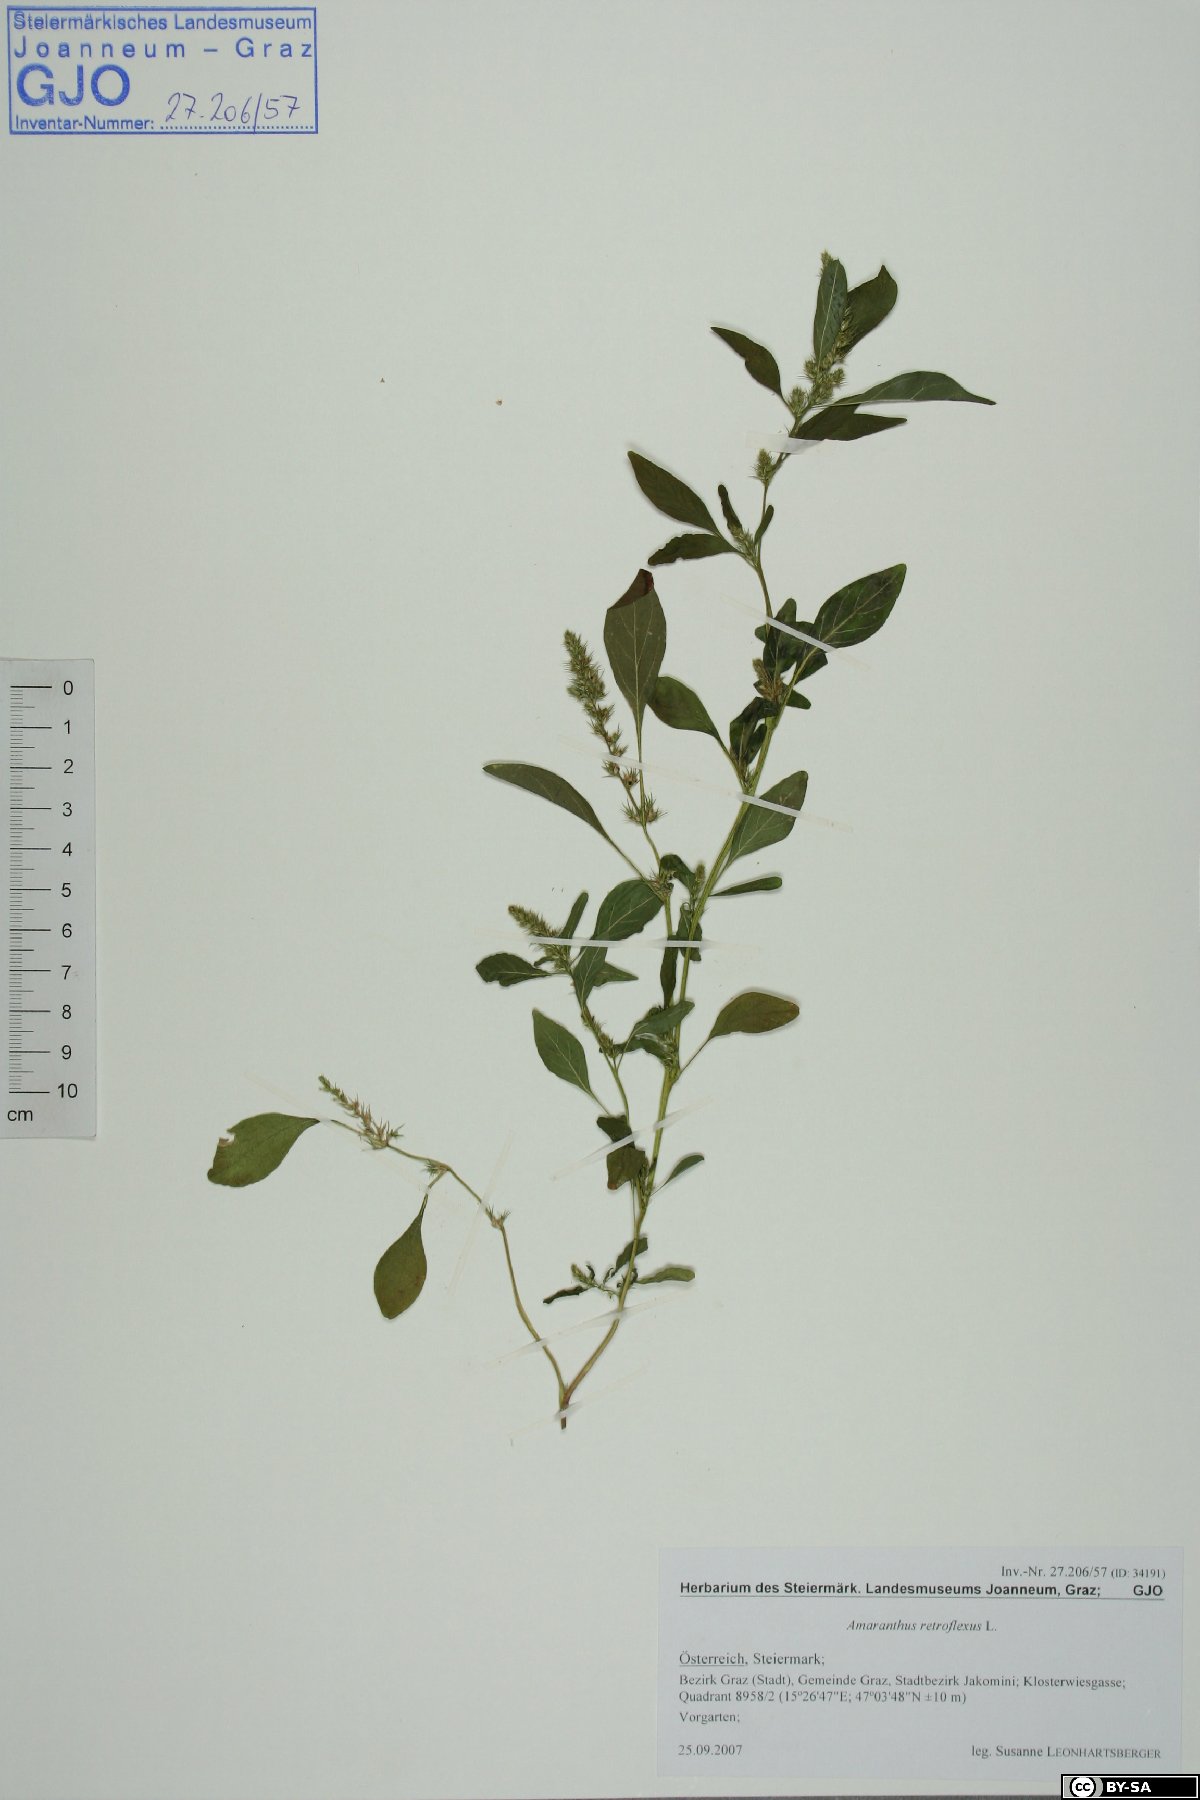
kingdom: Plantae
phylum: Tracheophyta
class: Magnoliopsida
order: Caryophyllales
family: Amaranthaceae
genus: Amaranthus
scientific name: Amaranthus retroflexus
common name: Redroot amaranth
